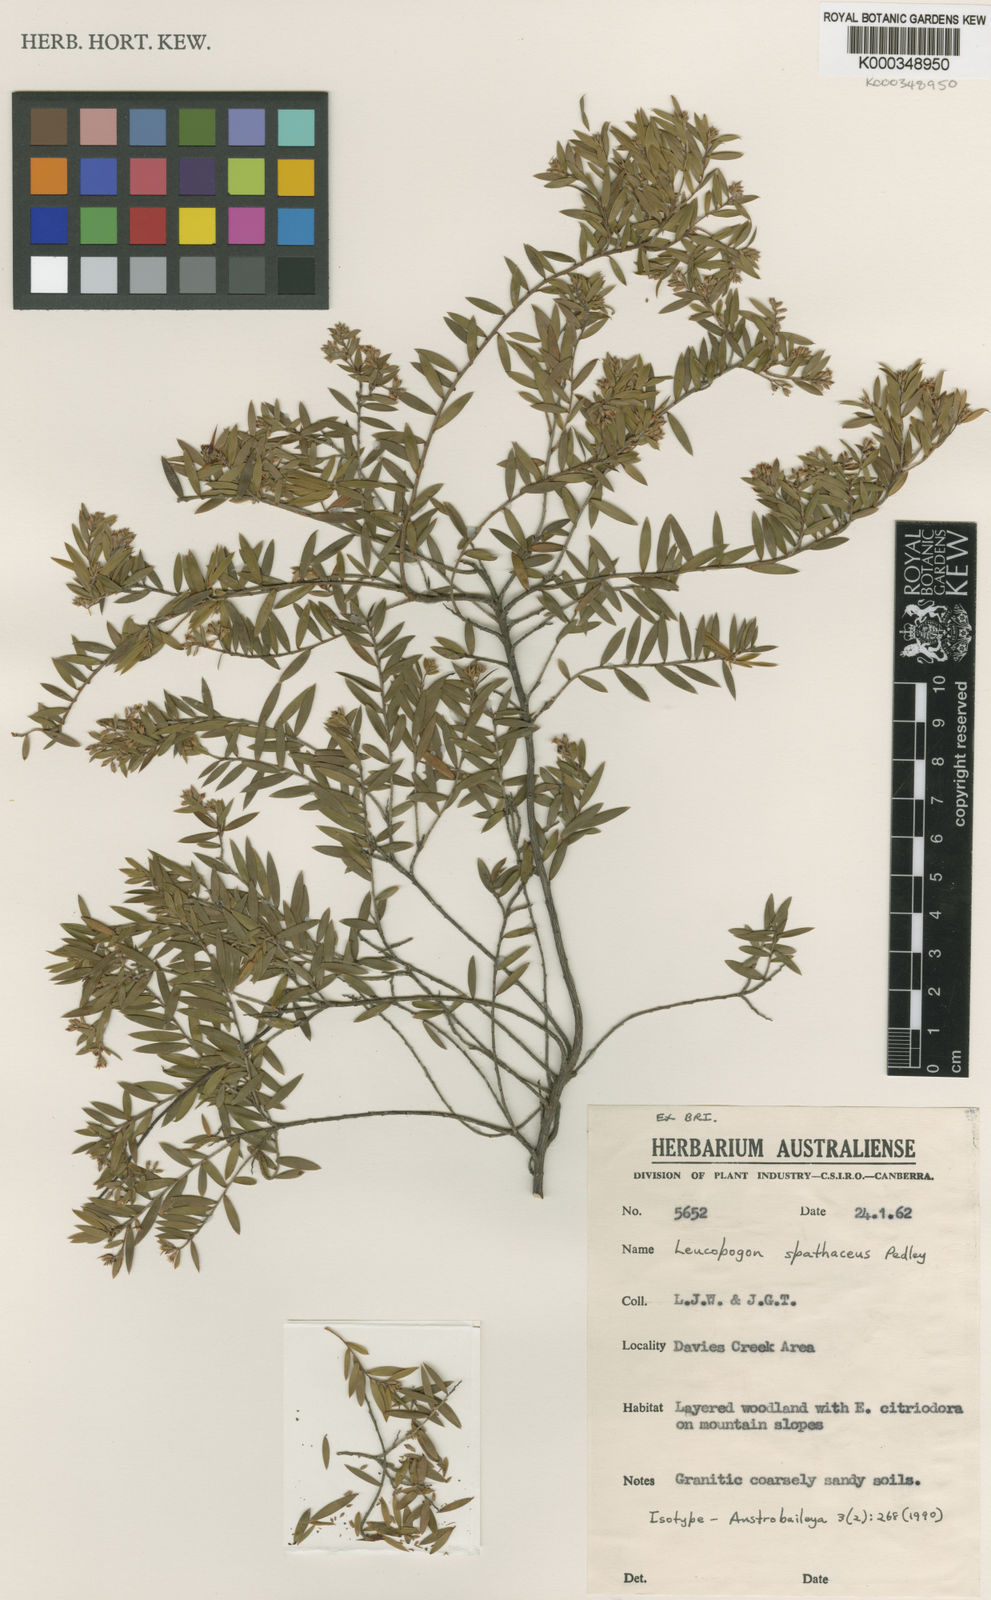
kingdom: Plantae
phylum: Tracheophyta
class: Magnoliopsida
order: Ericales
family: Ericaceae
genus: Acrothamnus
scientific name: Acrothamnus spathaceus
